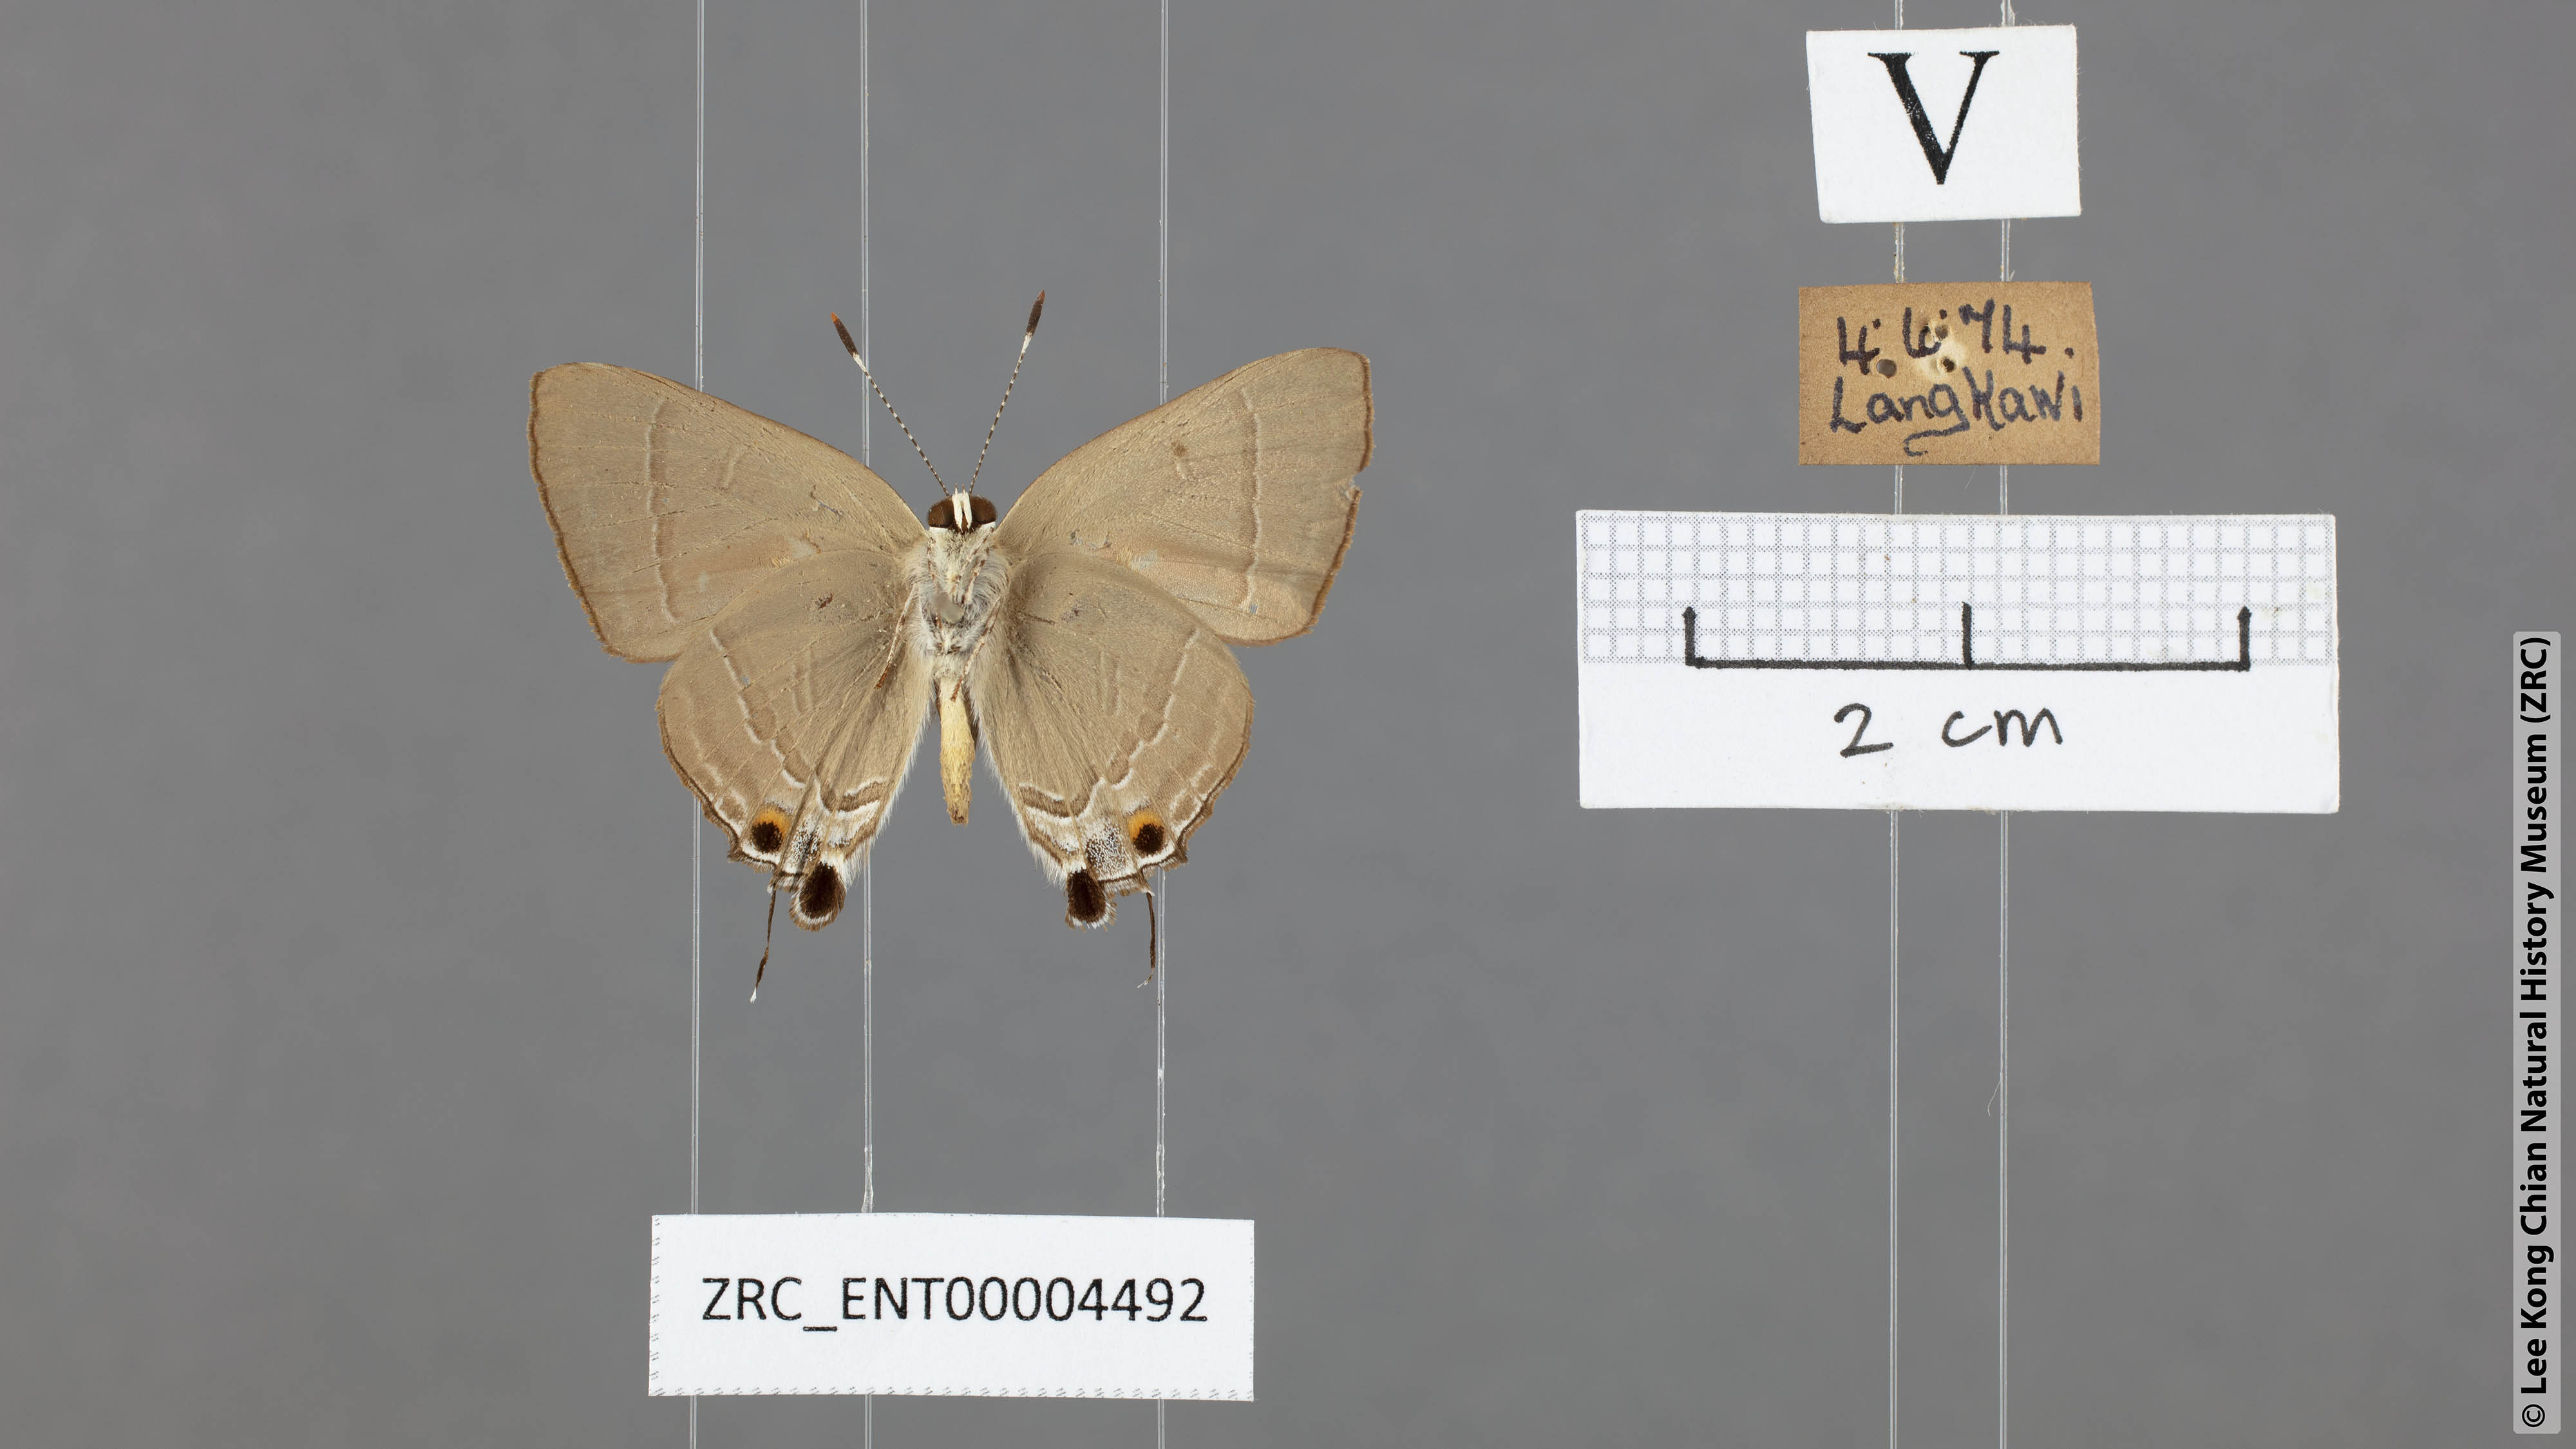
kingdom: Animalia
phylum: Arthropoda
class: Insecta
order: Lepidoptera
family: Lycaenidae
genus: Rapala
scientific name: Rapala iarbas
